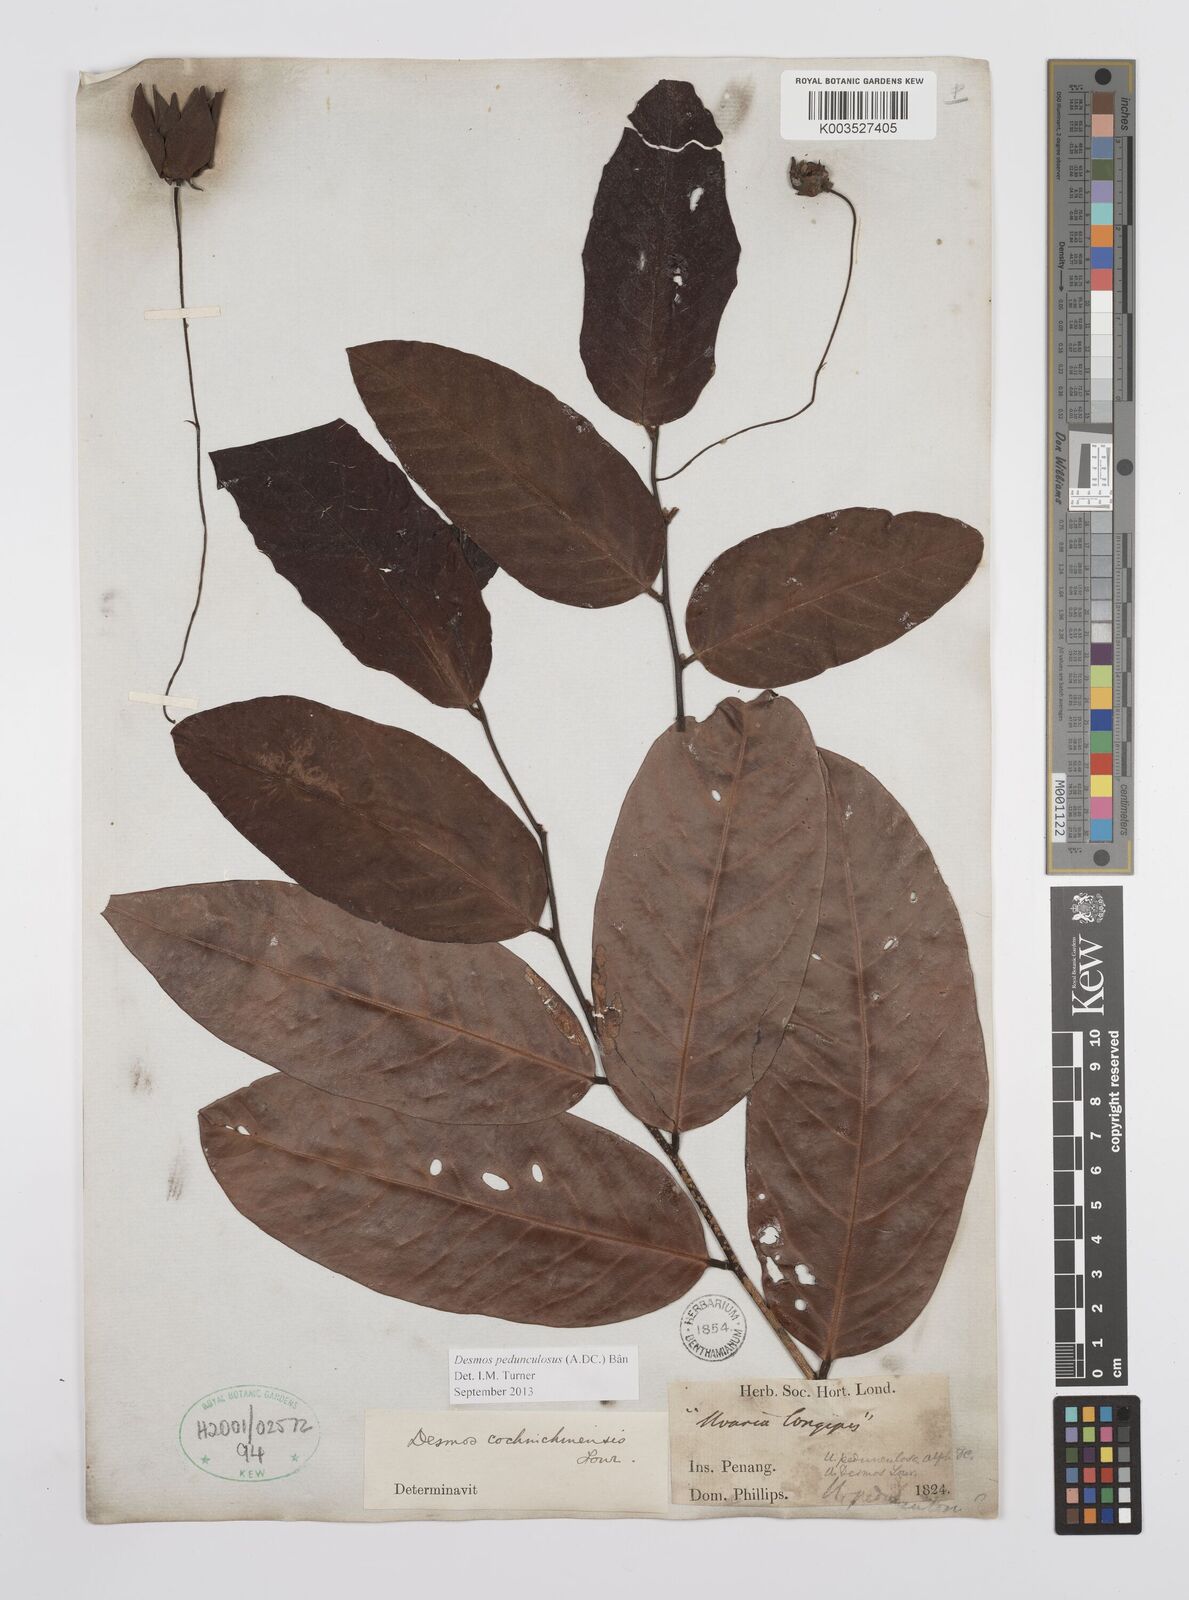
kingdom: Plantae
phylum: Tracheophyta
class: Magnoliopsida
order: Magnoliales
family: Annonaceae
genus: Desmos
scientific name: Desmos cochinchinensis
